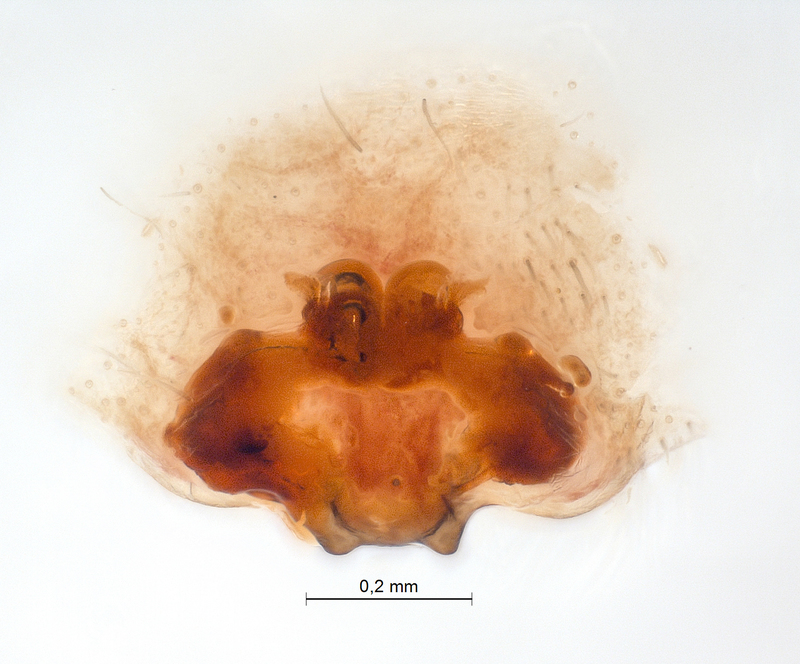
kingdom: Animalia
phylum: Arthropoda
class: Arachnida
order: Araneae
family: Clubionidae
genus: Clubiona
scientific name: Clubiona kulczynskii
